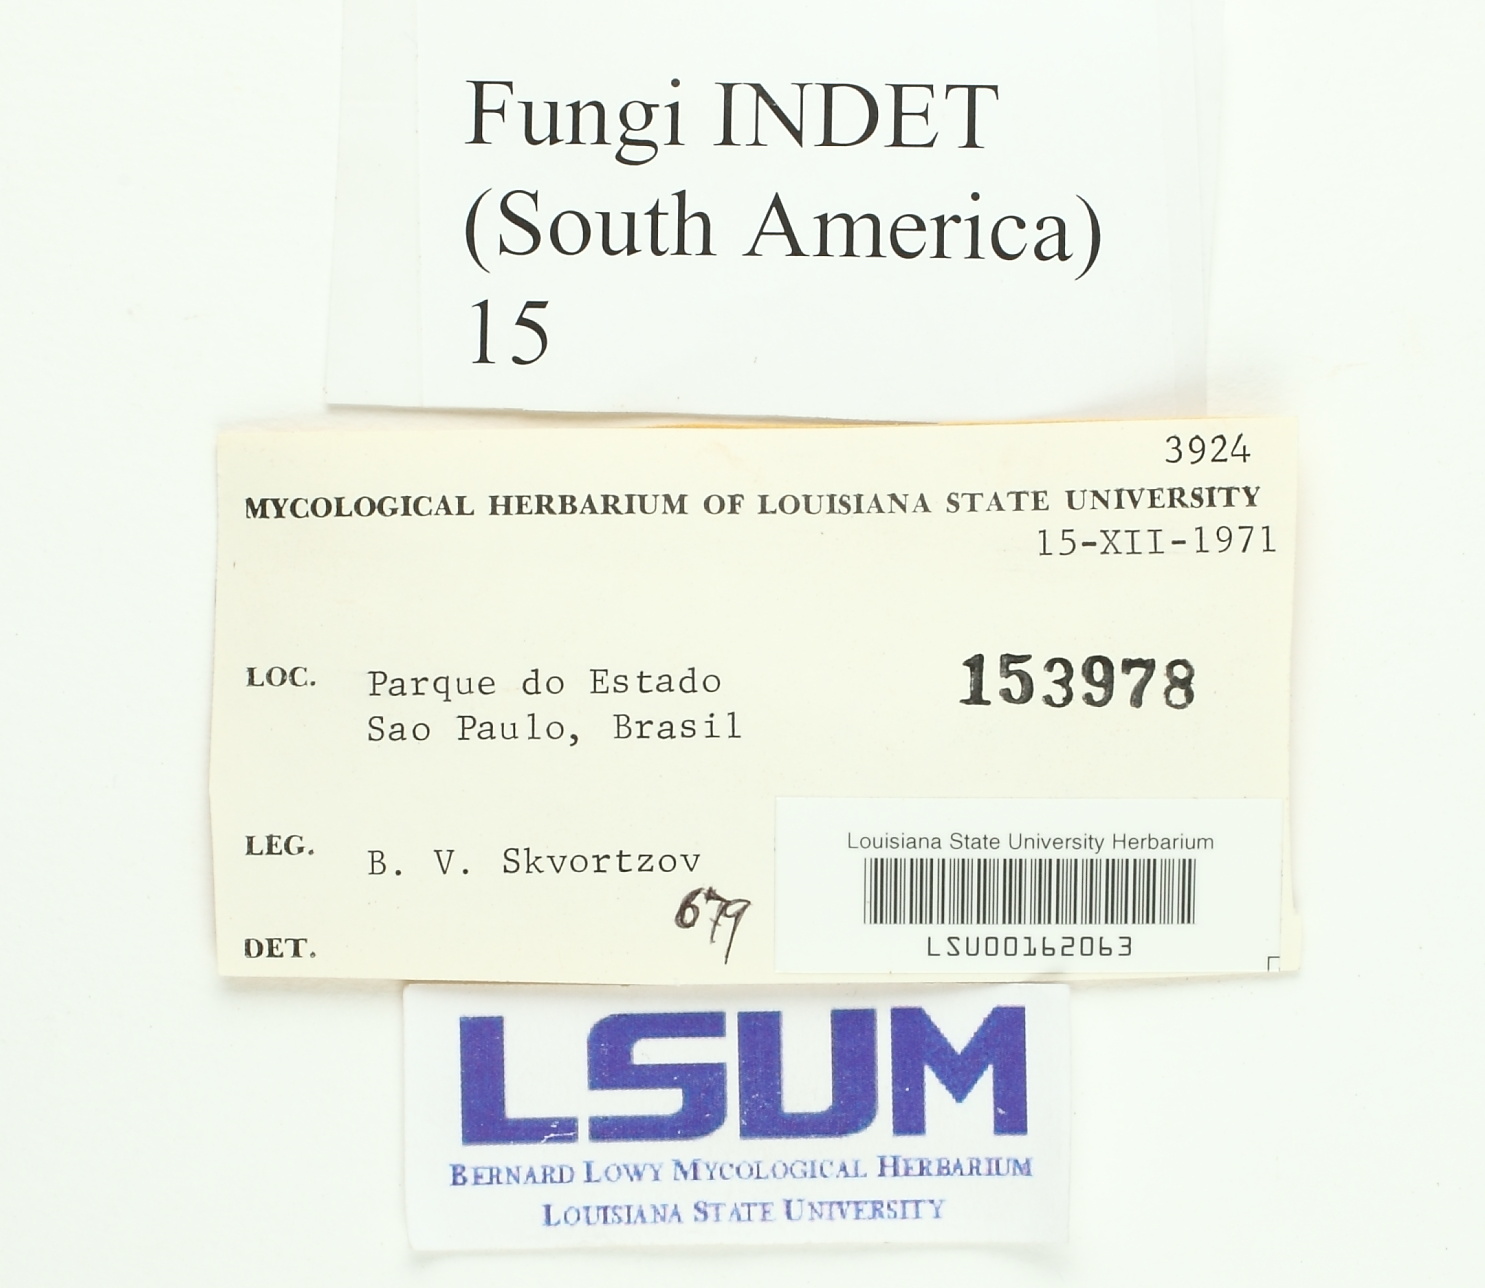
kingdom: Fungi
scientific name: Fungi
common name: Fungi
